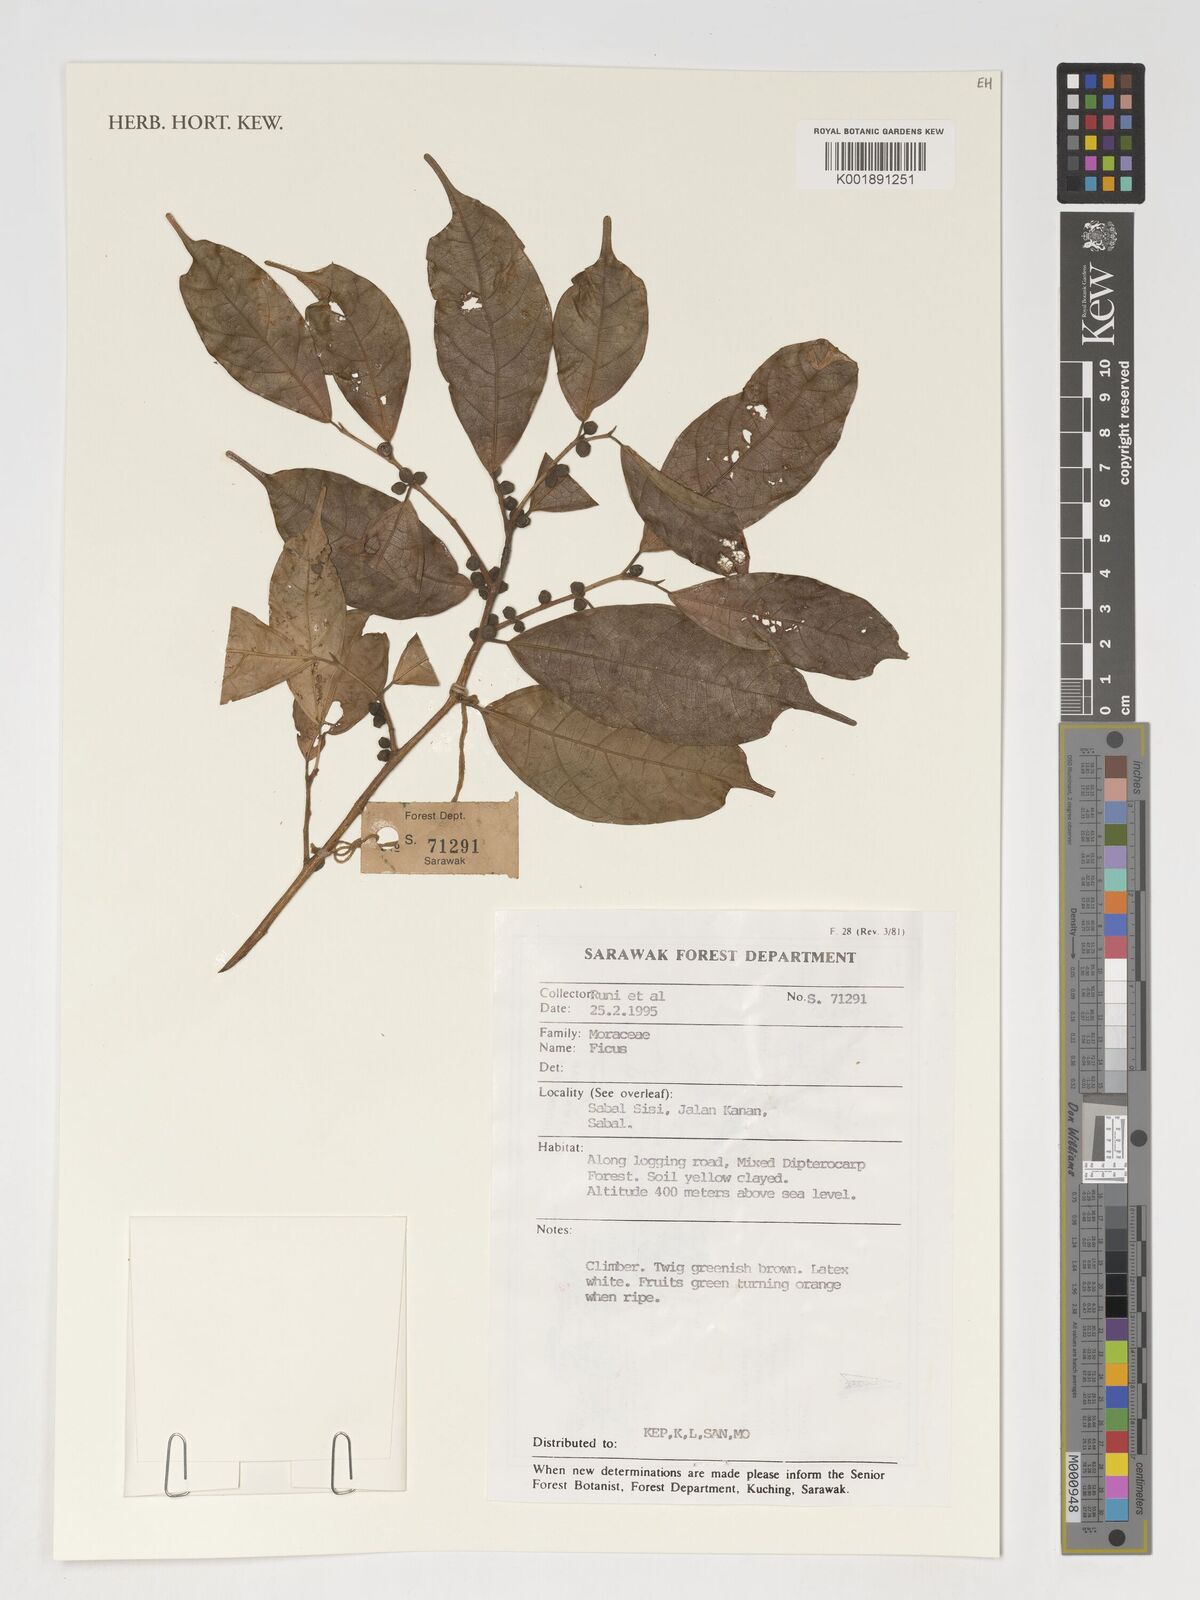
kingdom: Plantae
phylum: Tracheophyta
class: Magnoliopsida
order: Rosales
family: Moraceae
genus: Ficus
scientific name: Ficus
